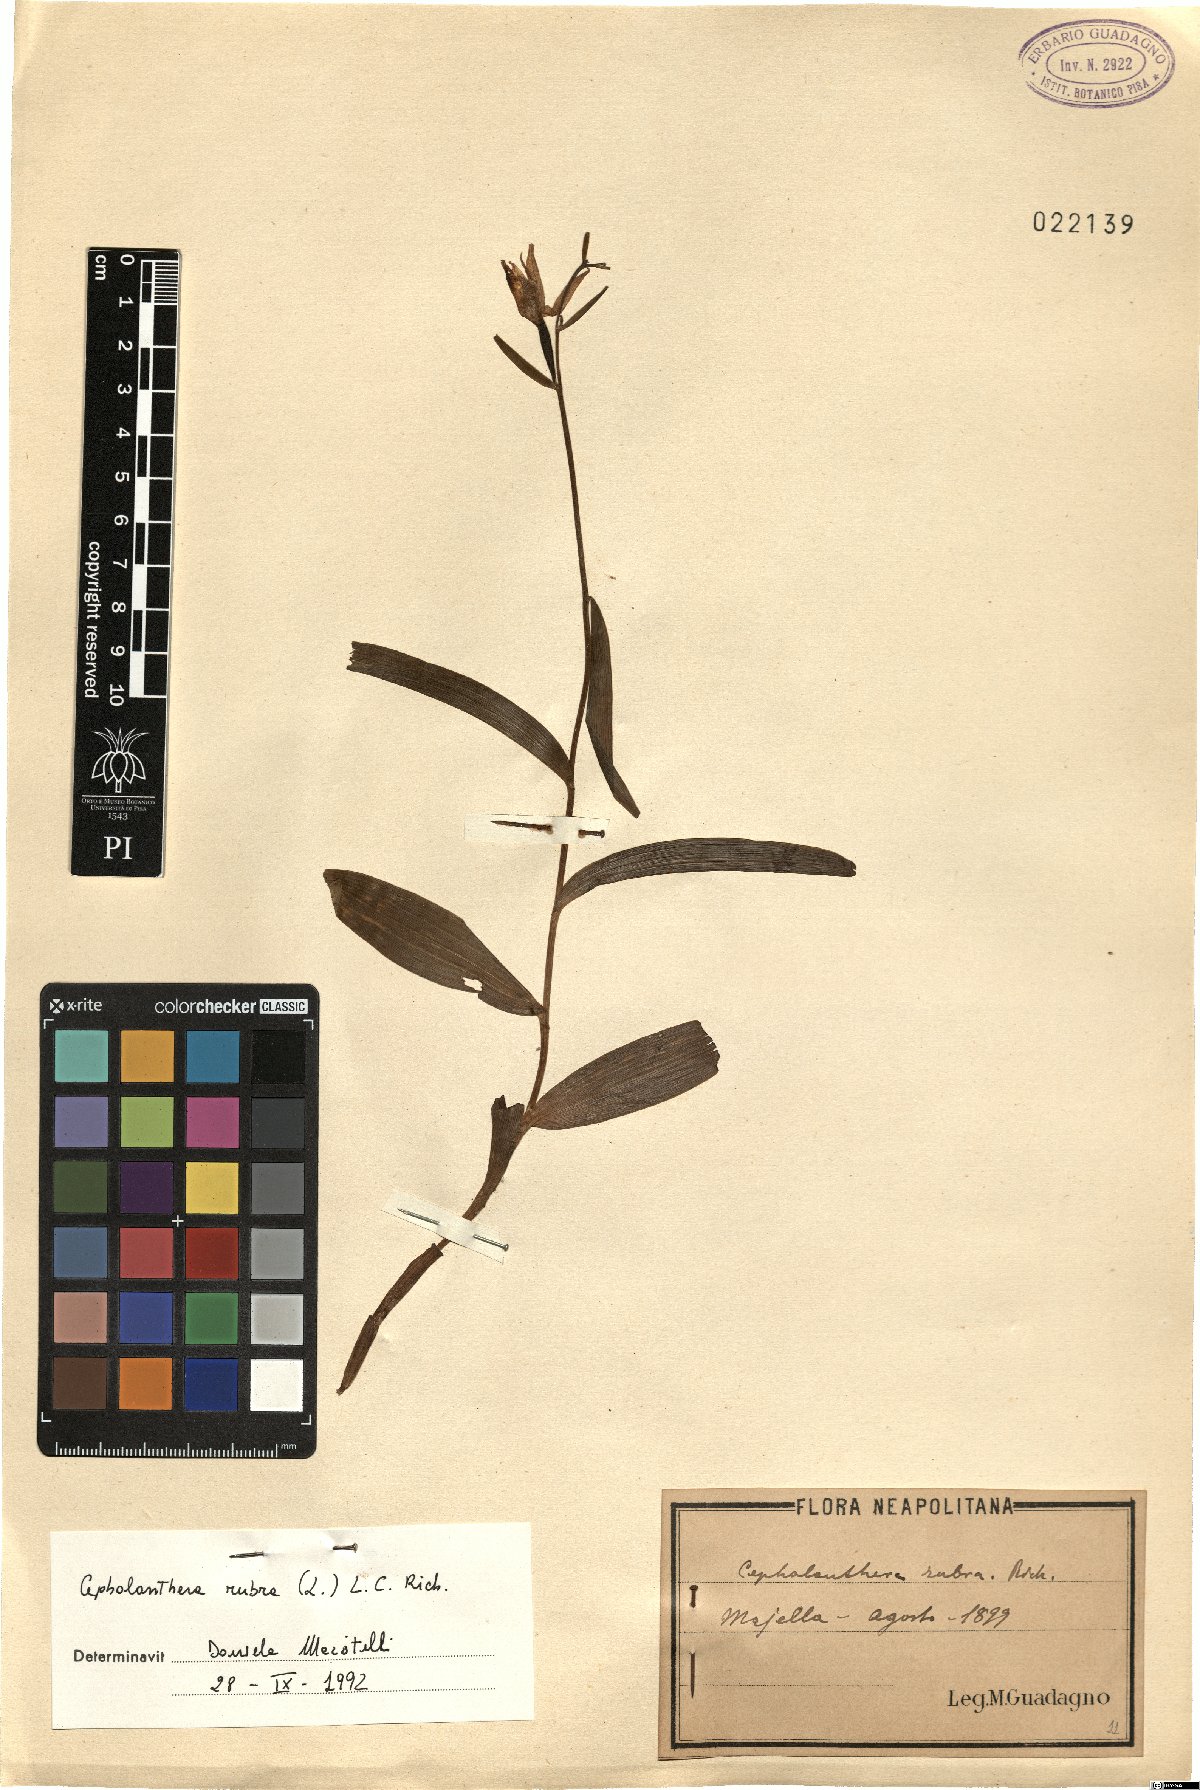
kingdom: Plantae
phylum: Tracheophyta
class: Liliopsida
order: Asparagales
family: Orchidaceae
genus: Cephalanthera
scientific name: Cephalanthera rubra
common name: Red helleborine
